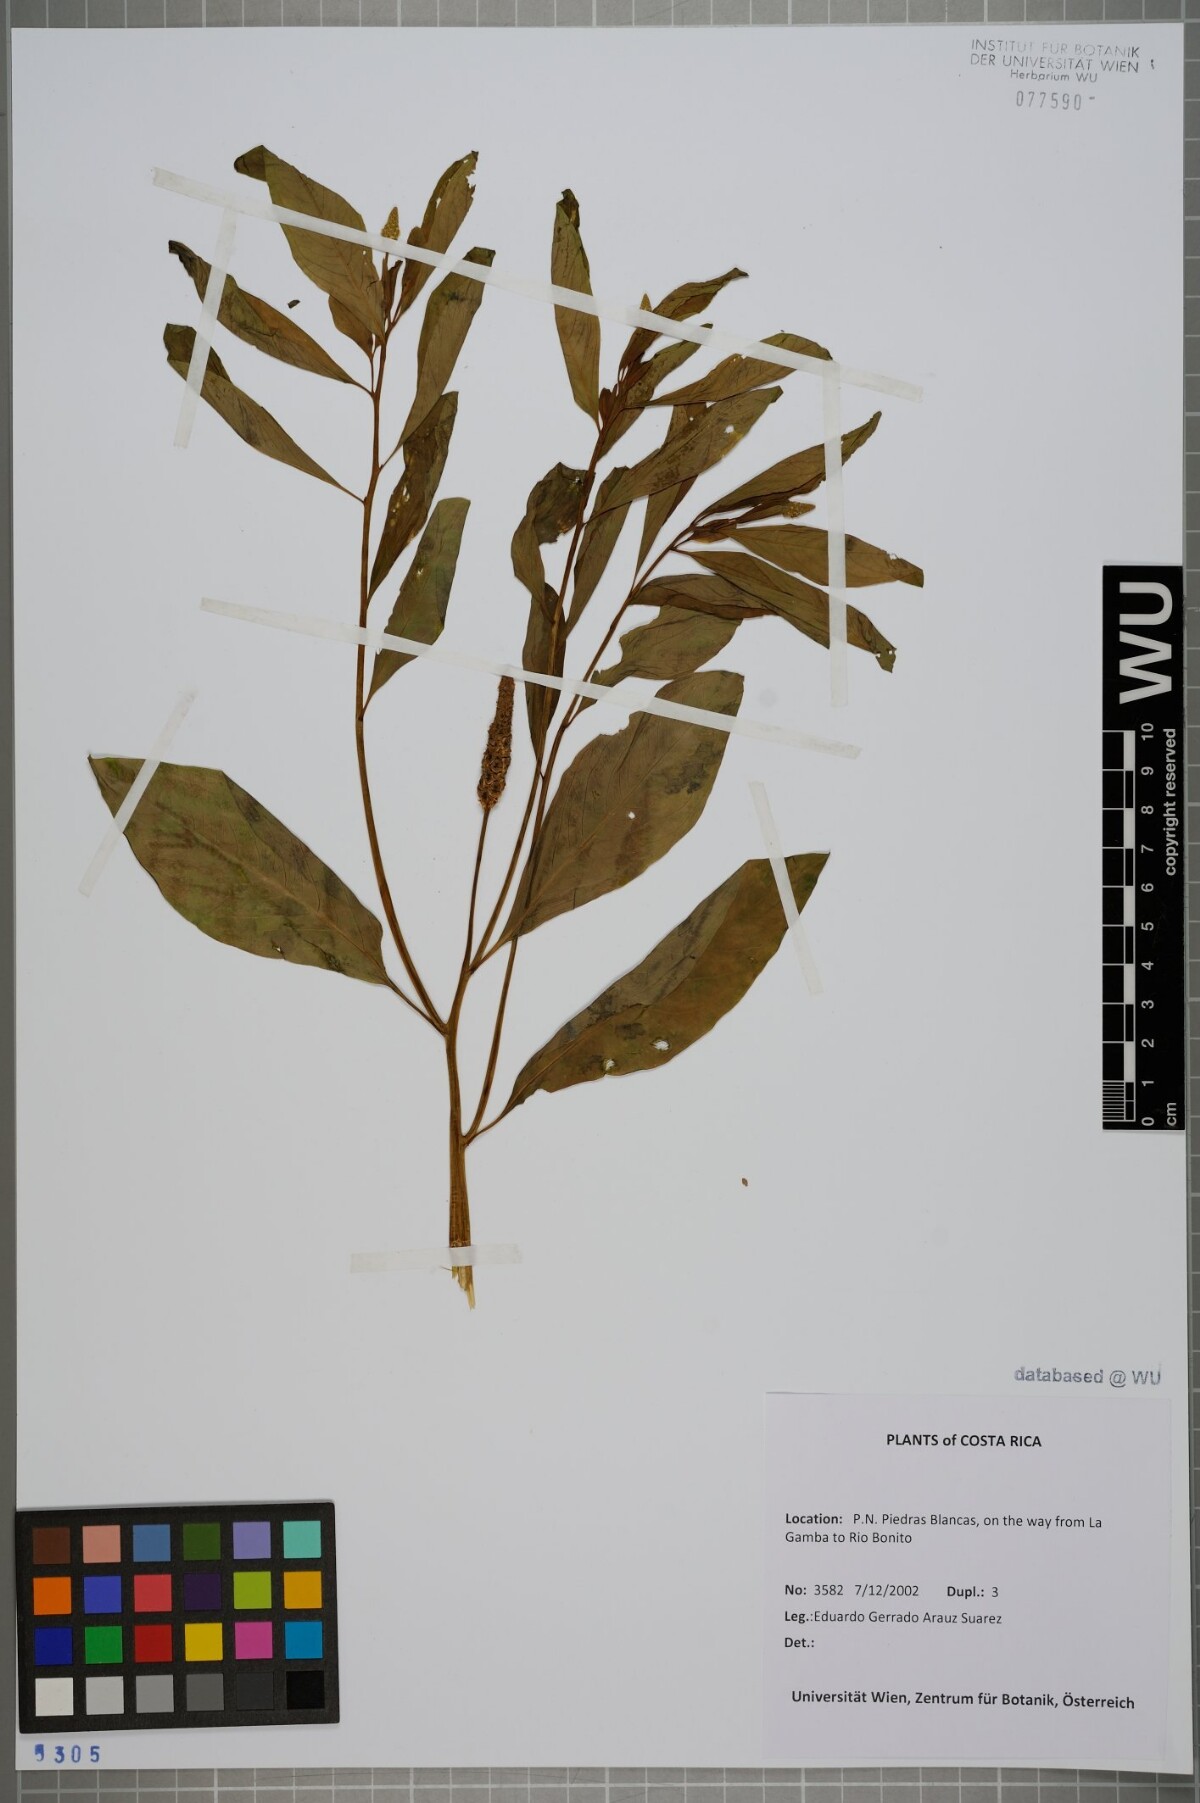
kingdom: Plantae
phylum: Tracheophyta
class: Magnoliopsida
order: Solanales
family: Sphenocleaceae
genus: Sphenoclea
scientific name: Sphenoclea zeylanica
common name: Chickenspike
